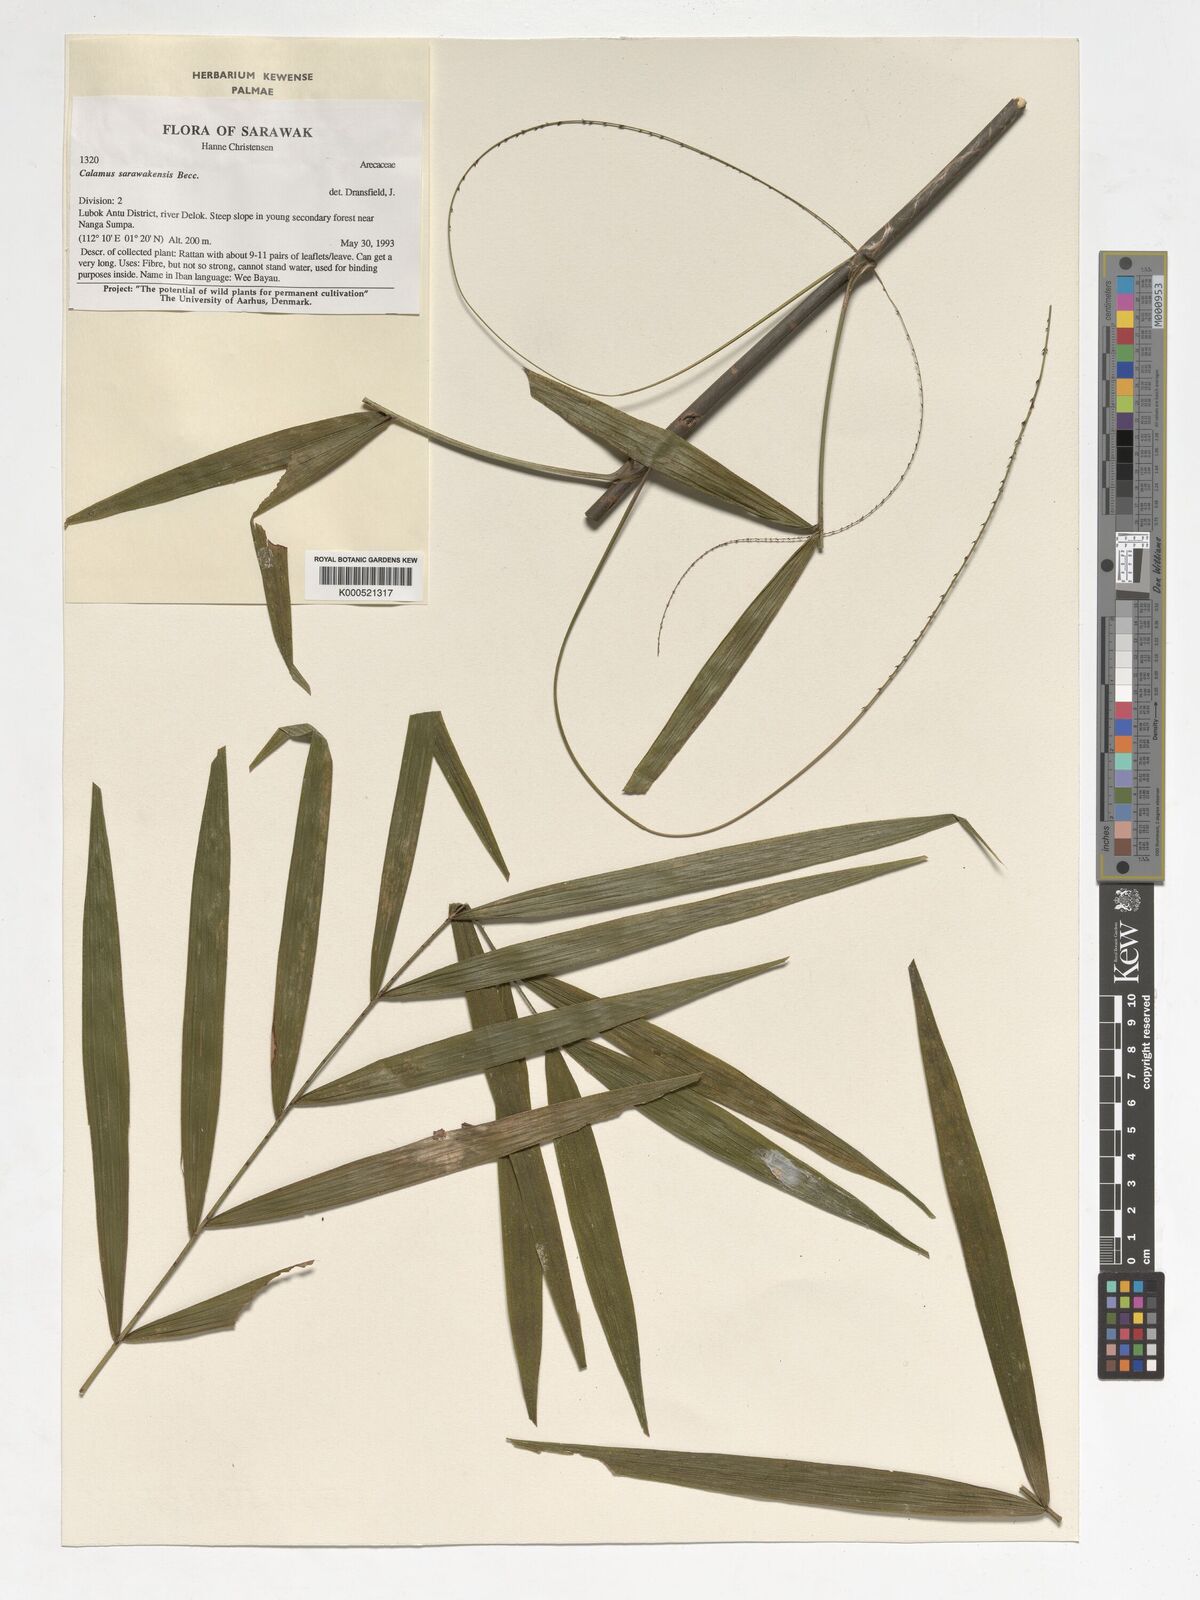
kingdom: Plantae
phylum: Tracheophyta
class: Liliopsida
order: Arecales
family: Arecaceae
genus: Calamus
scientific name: Calamus sarawakensis
